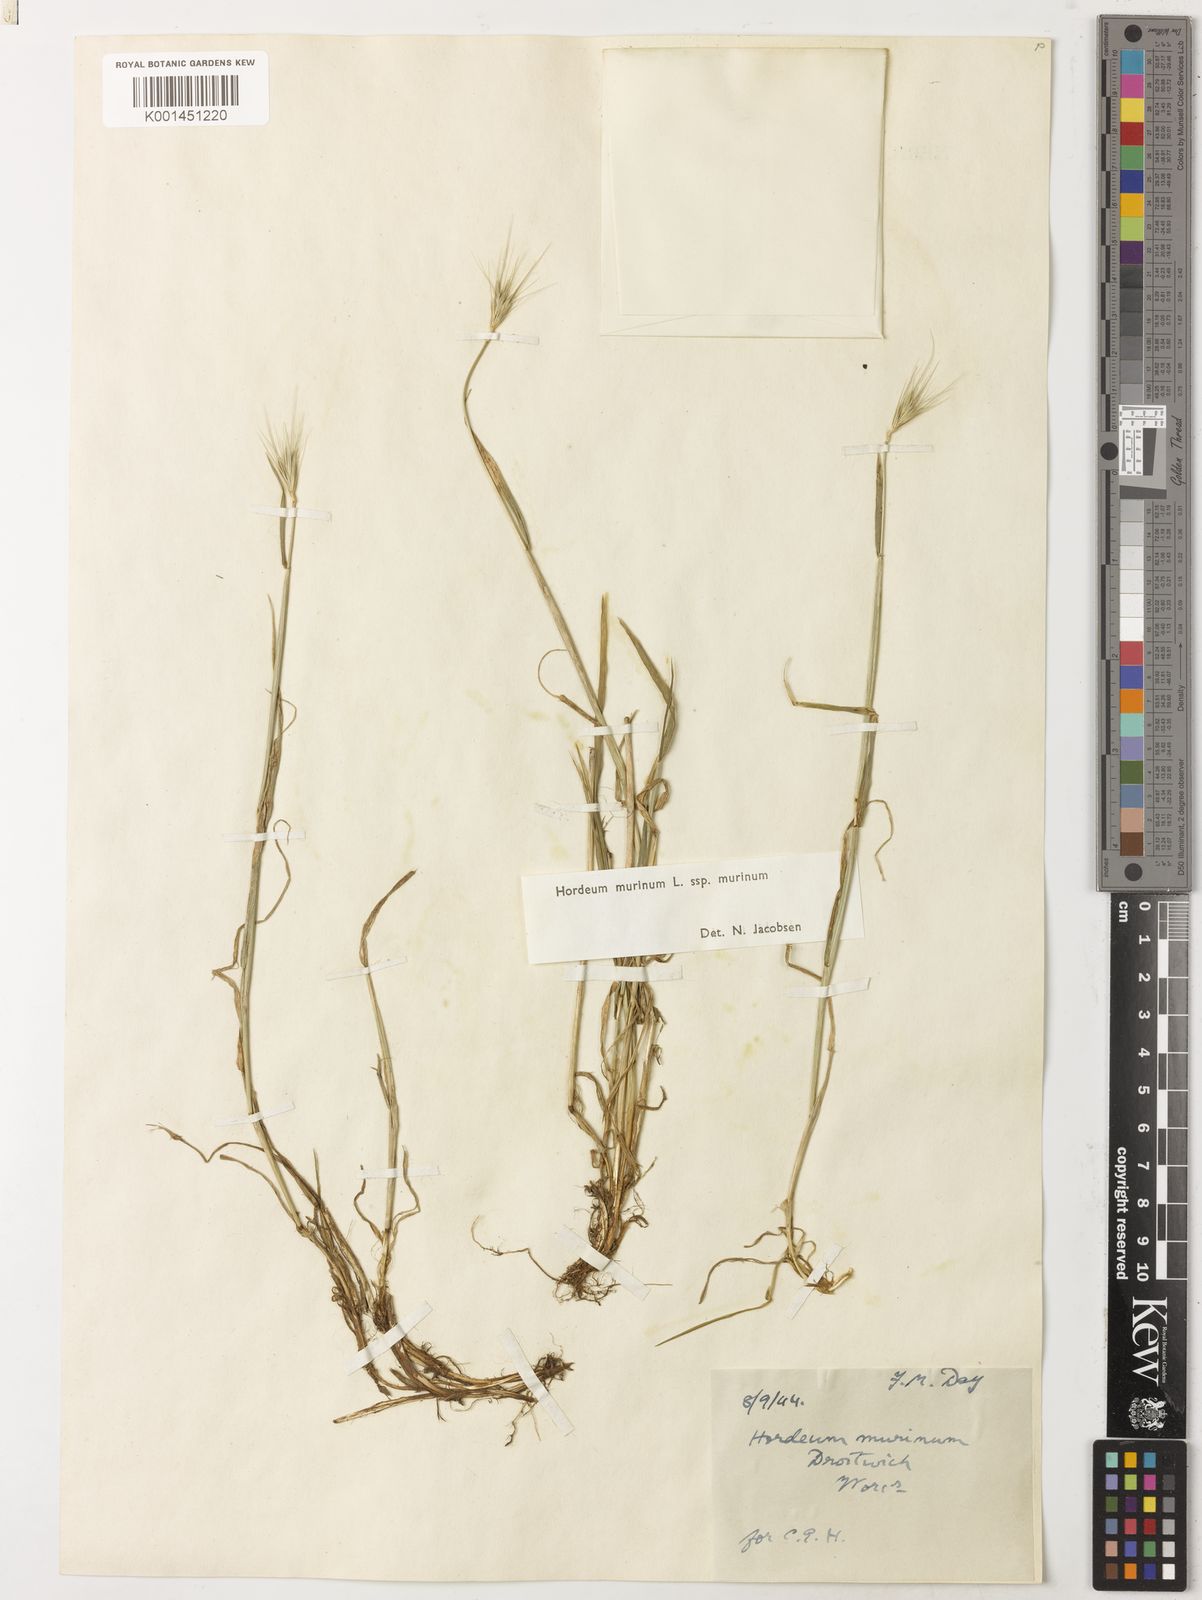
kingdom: Plantae
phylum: Tracheophyta
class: Liliopsida
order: Poales
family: Poaceae
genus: Hordeum
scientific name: Hordeum murinum
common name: Wall barley
